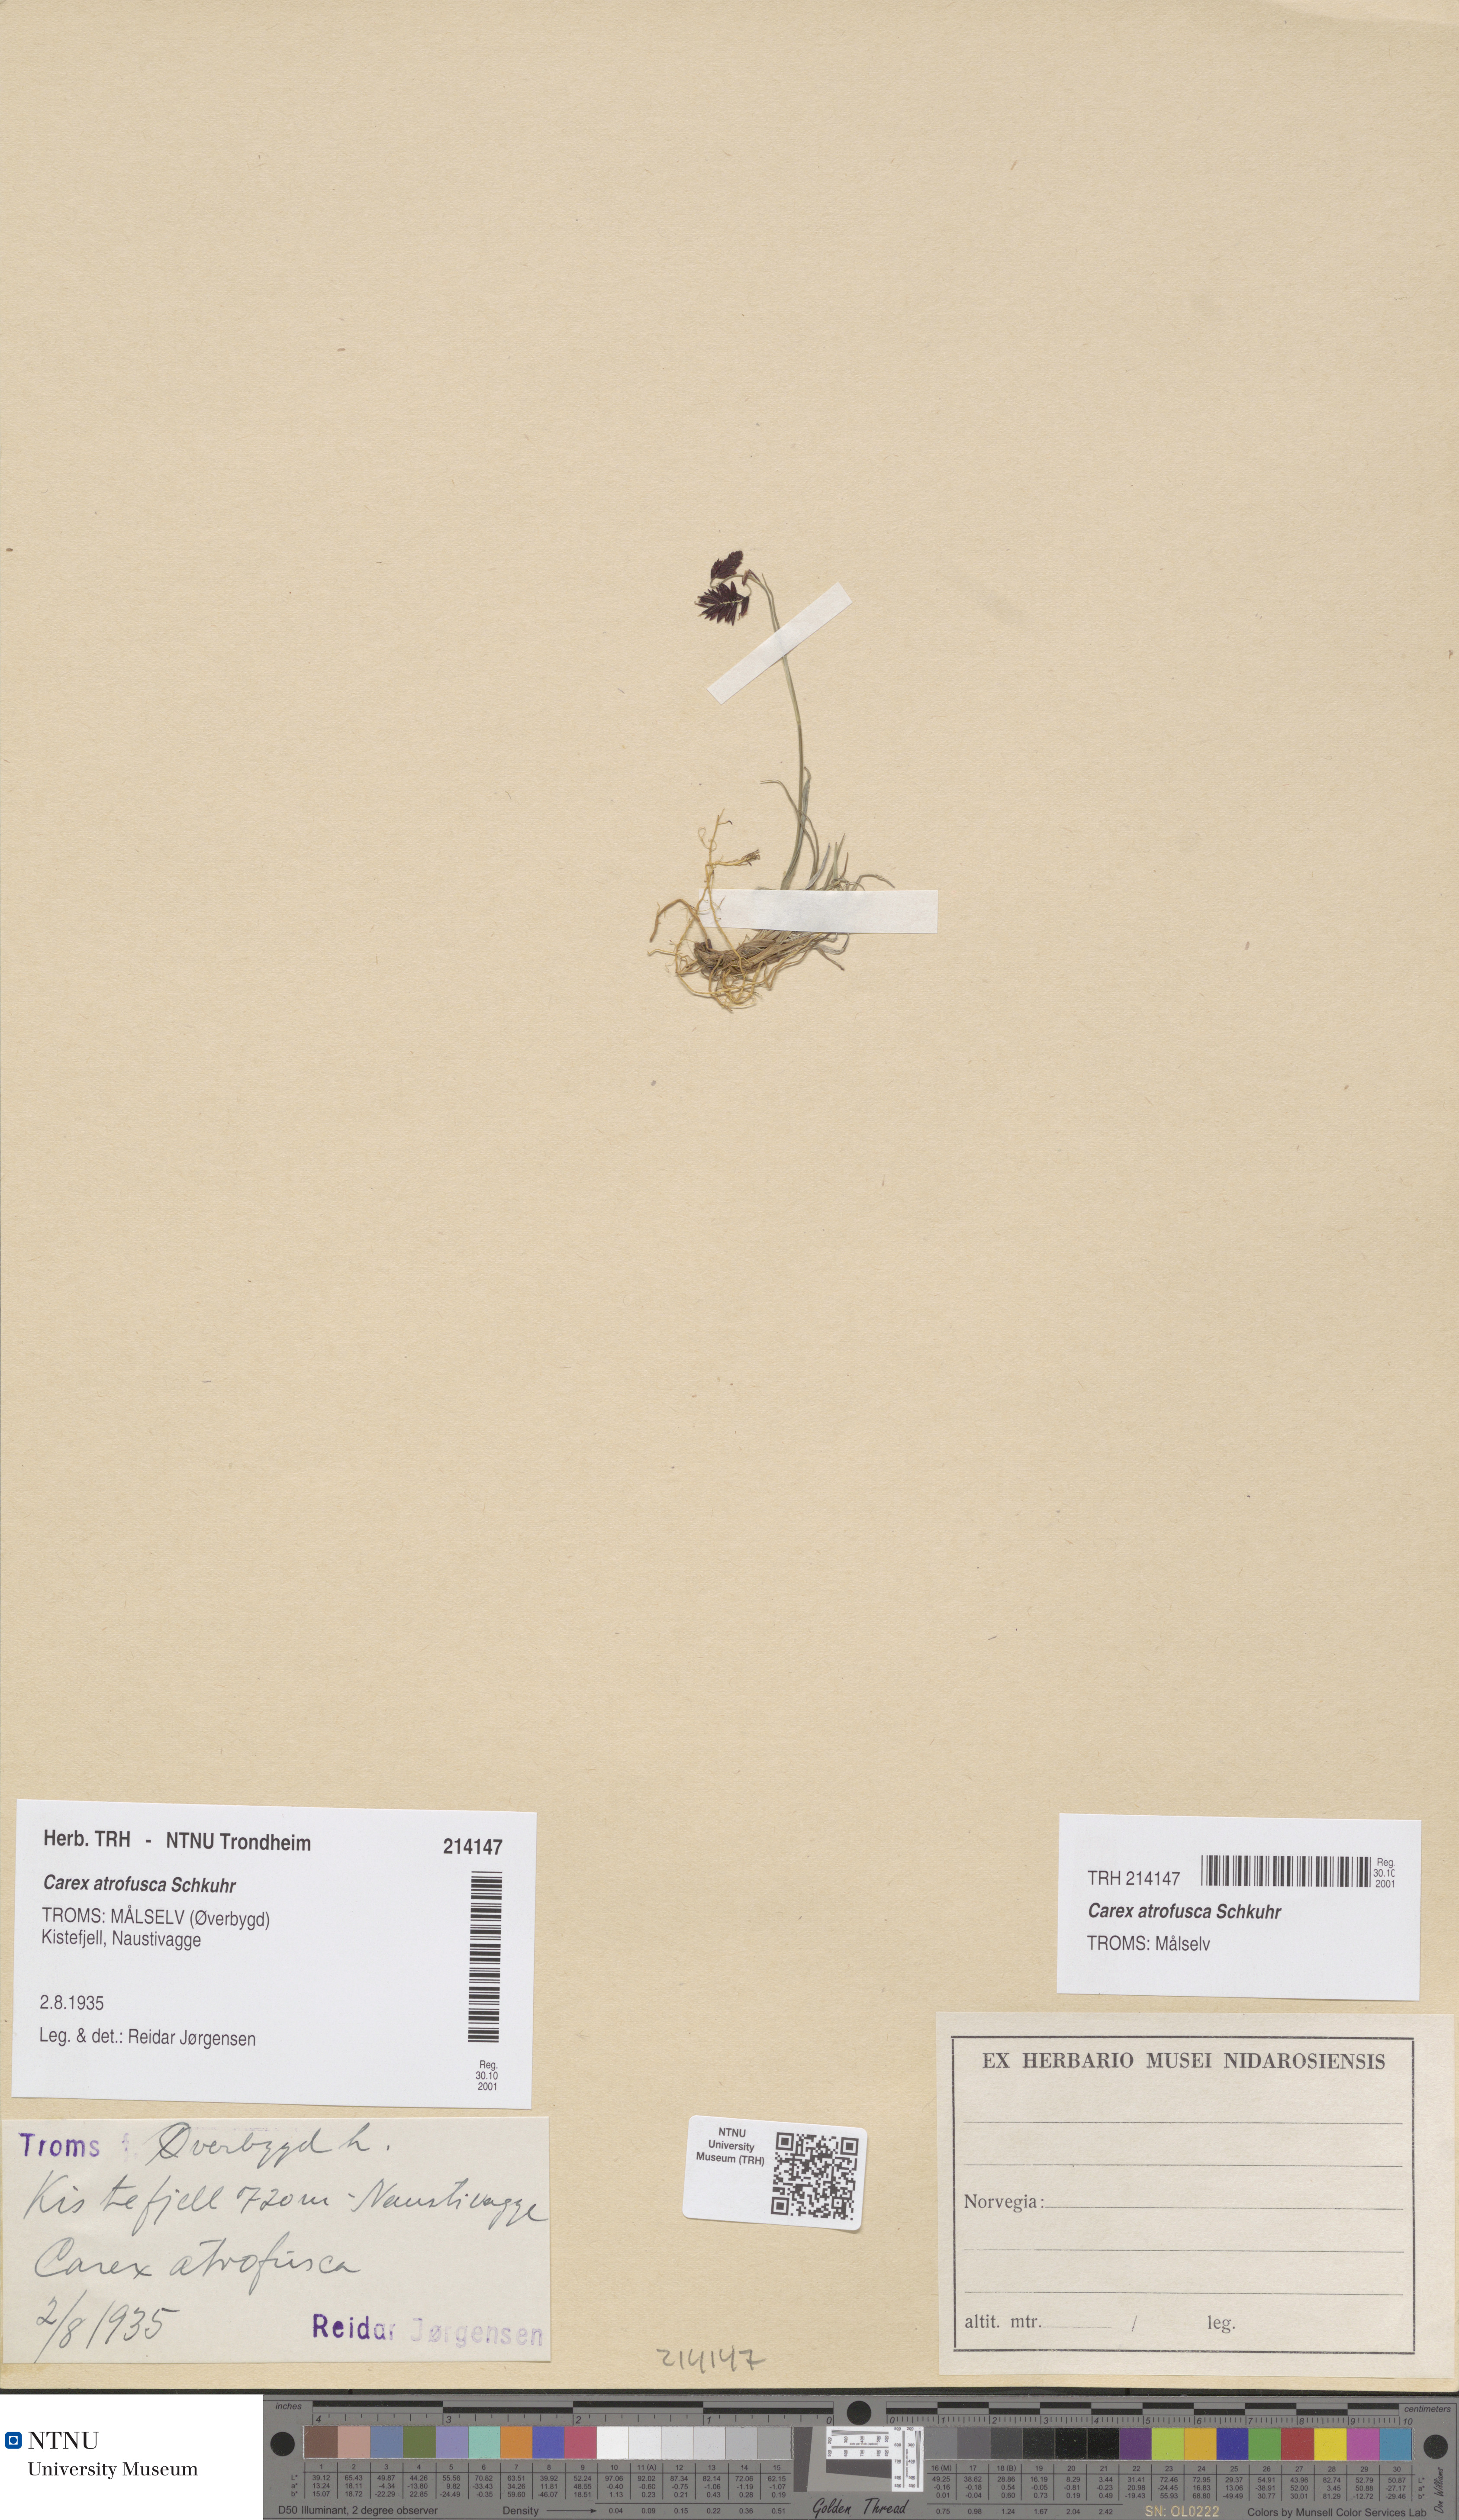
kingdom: Plantae
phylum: Tracheophyta
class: Liliopsida
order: Poales
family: Cyperaceae
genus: Carex
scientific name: Carex atrofusca
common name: Scorched alpine-sedge
